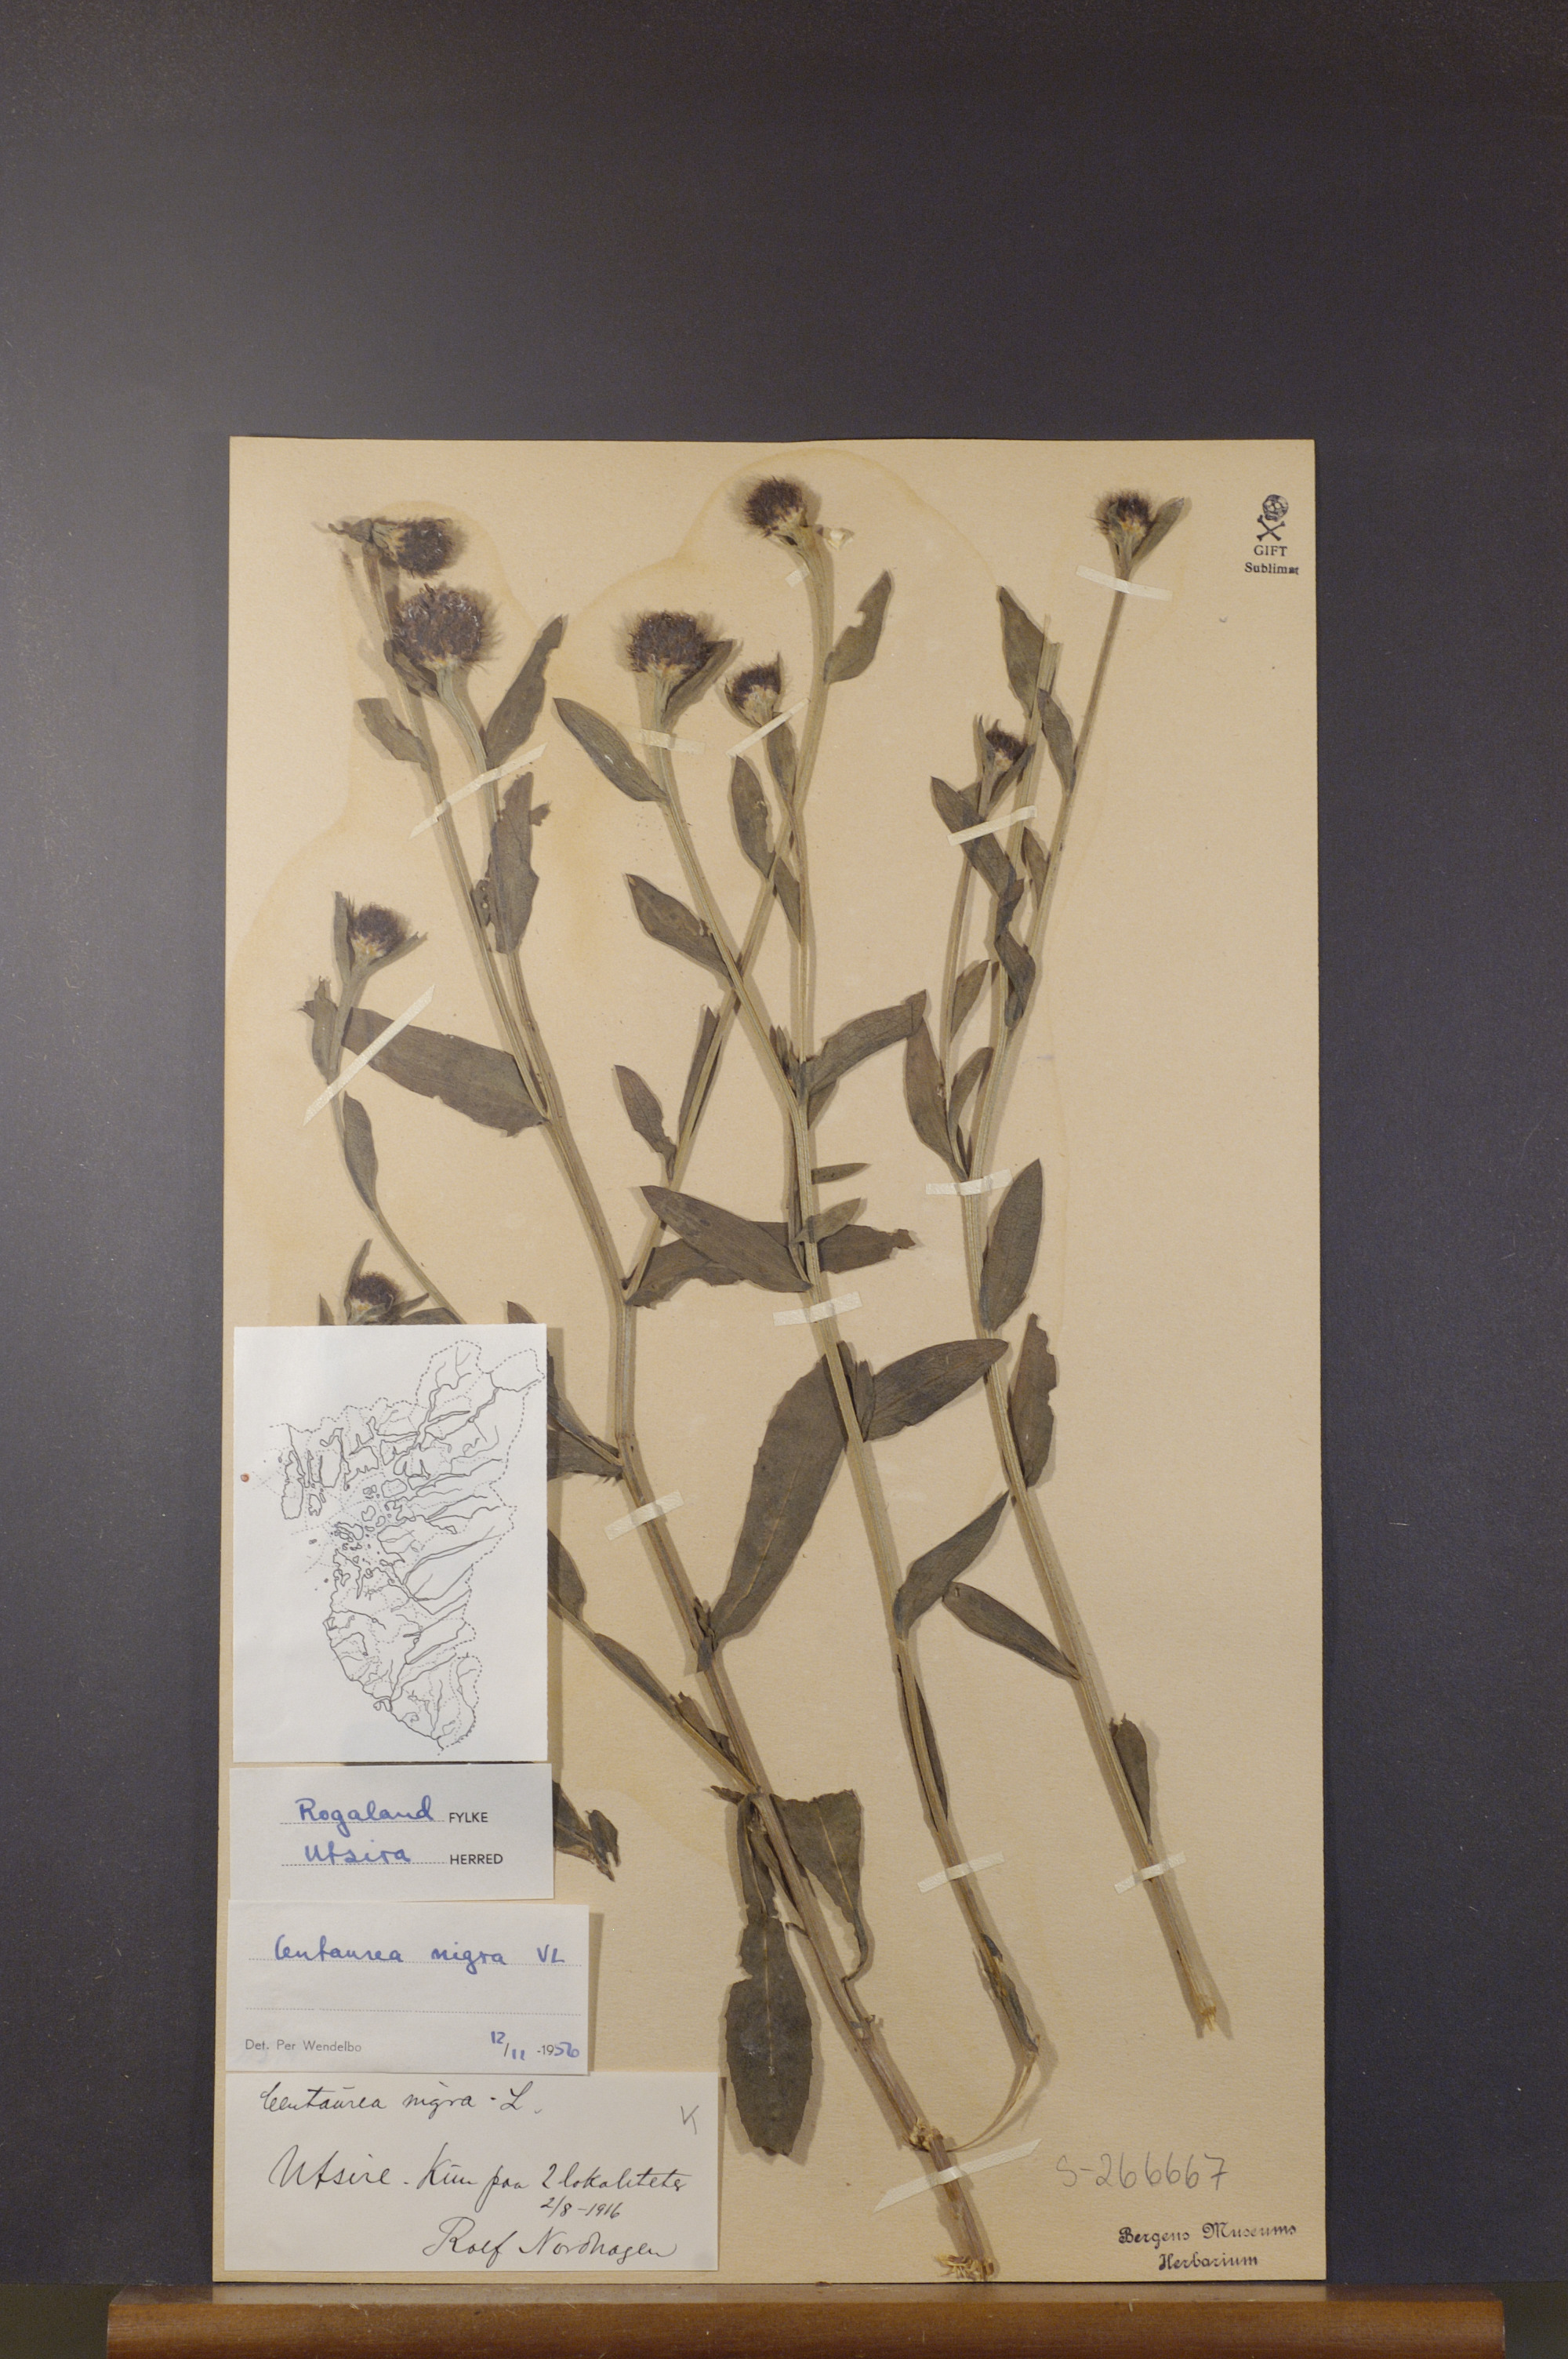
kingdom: Plantae
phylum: Tracheophyta
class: Magnoliopsida
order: Asterales
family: Asteraceae
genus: Centaurea
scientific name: Centaurea nigra
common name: Lesser knapweed
